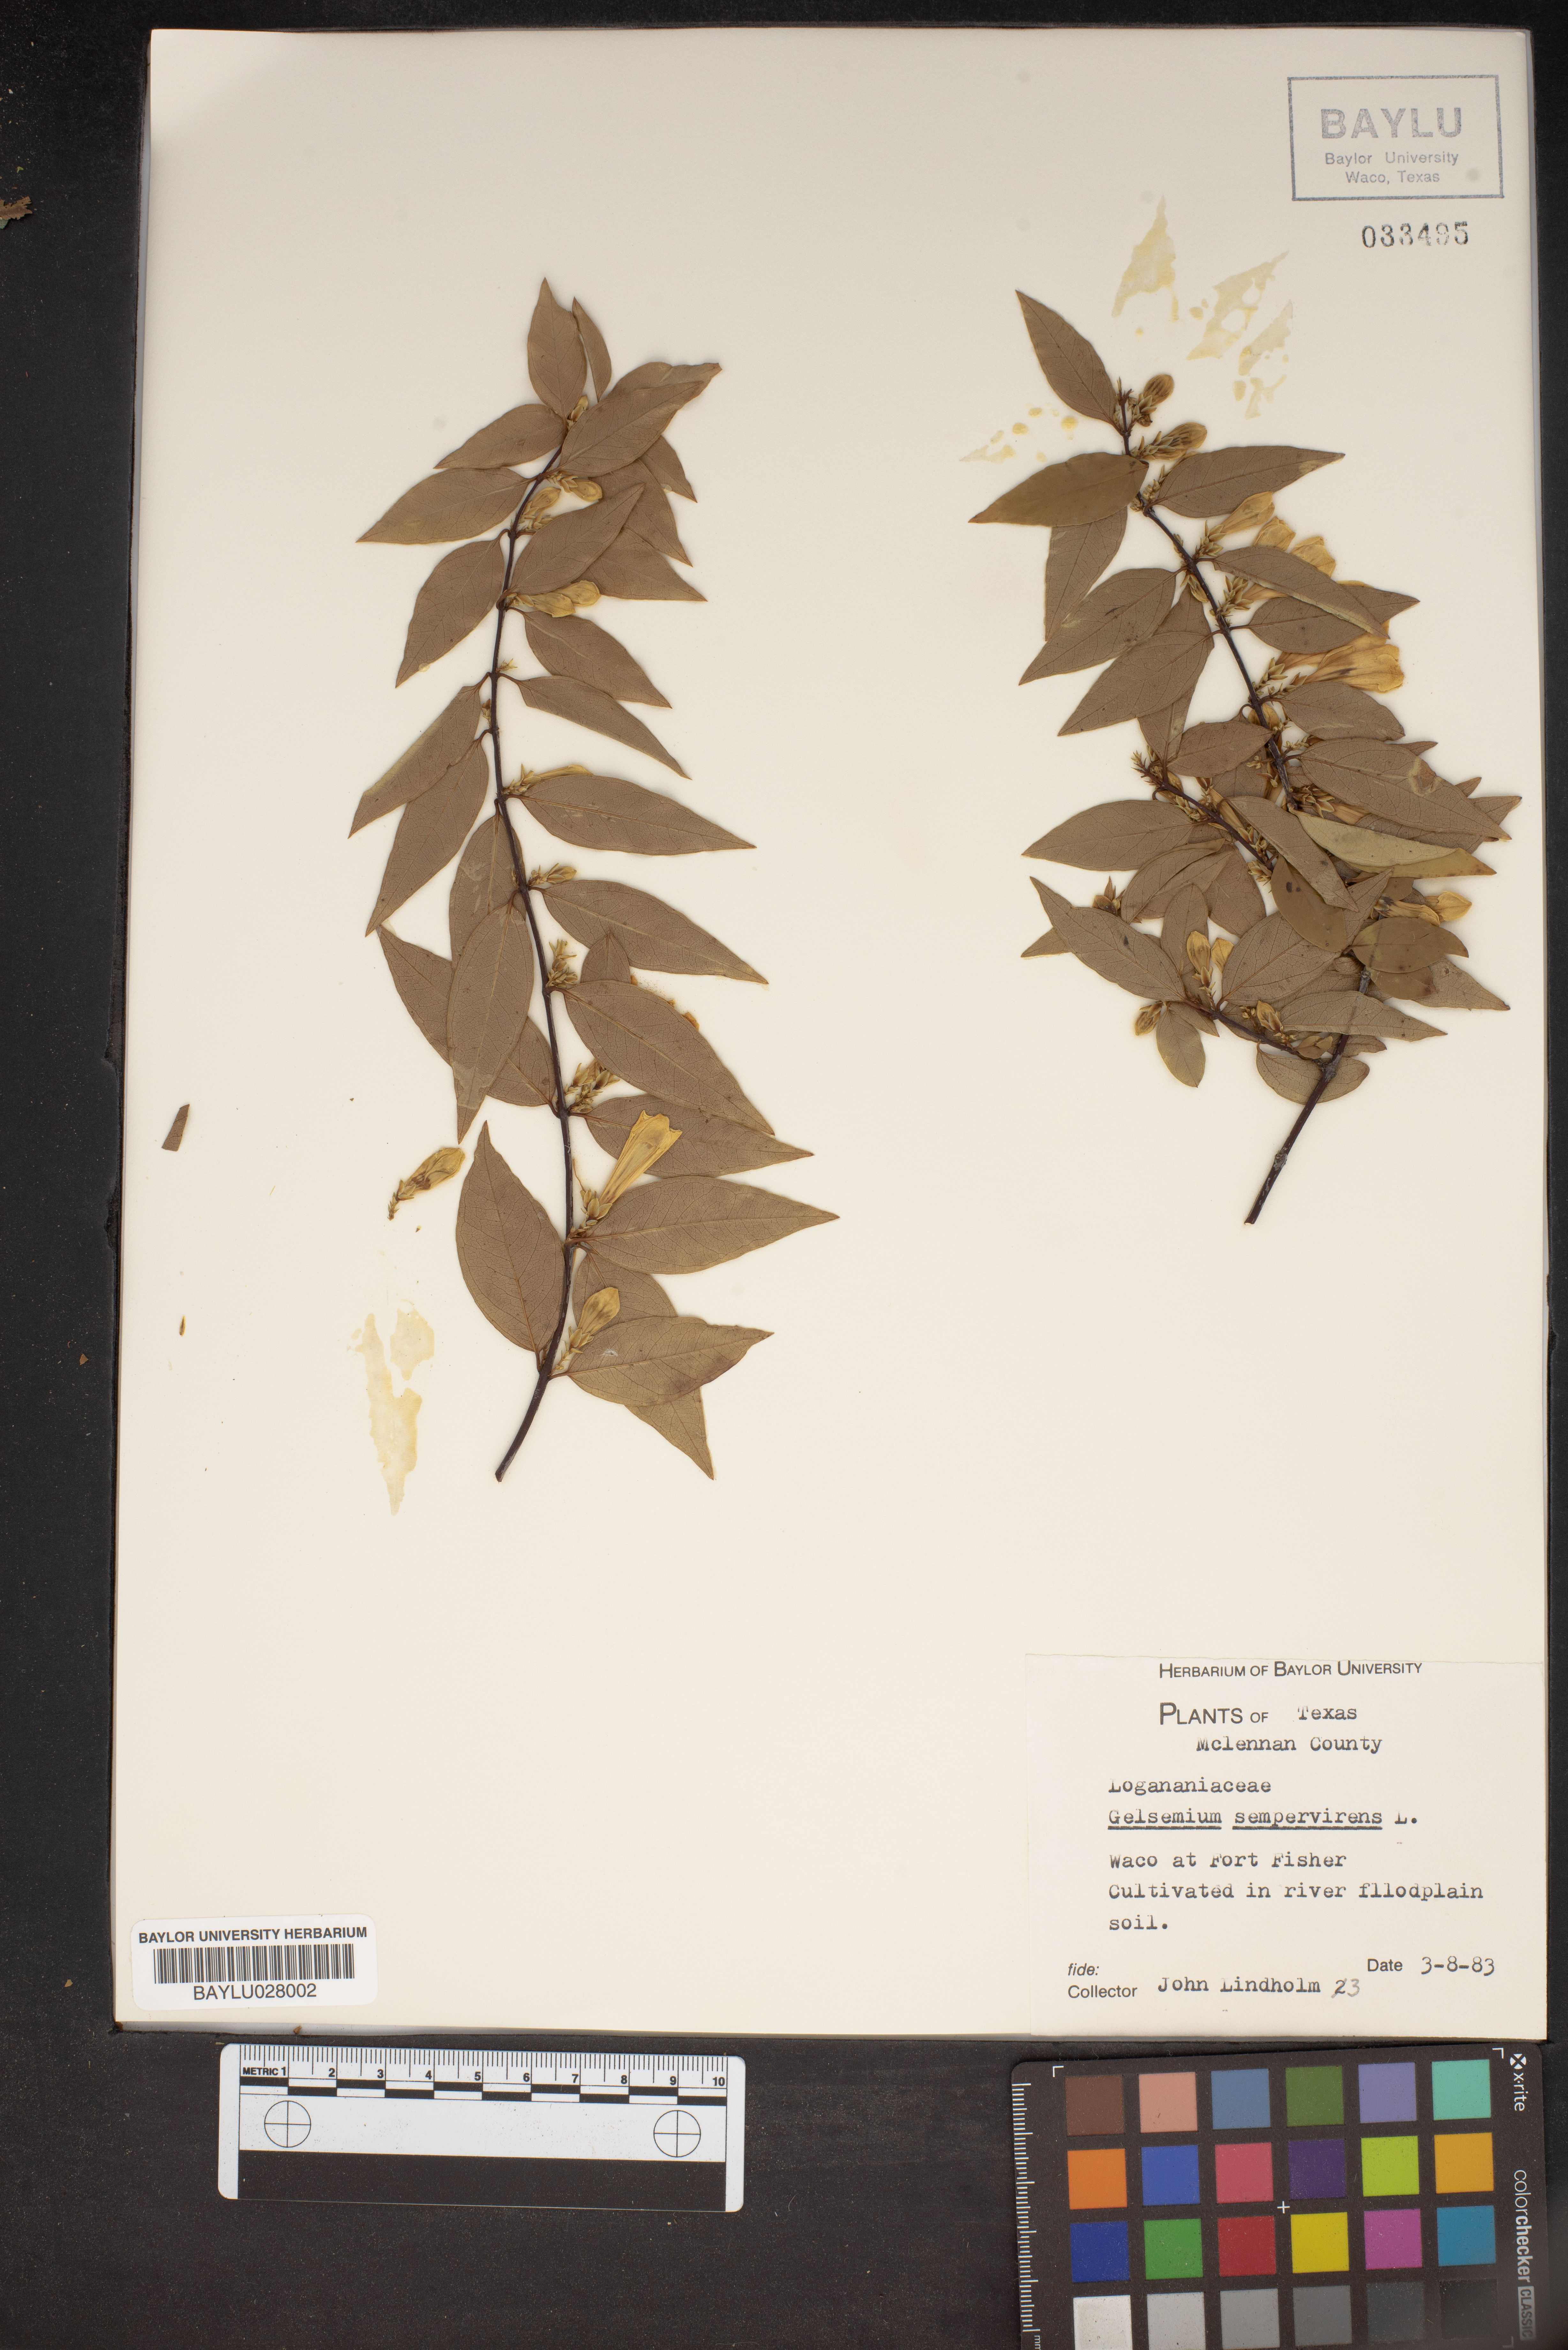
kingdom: Plantae
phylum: Tracheophyta
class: Magnoliopsida
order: Gentianales
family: Gelsemiaceae
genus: Gelsemium
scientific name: Gelsemium sempervirens
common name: Carolina-jasmine
